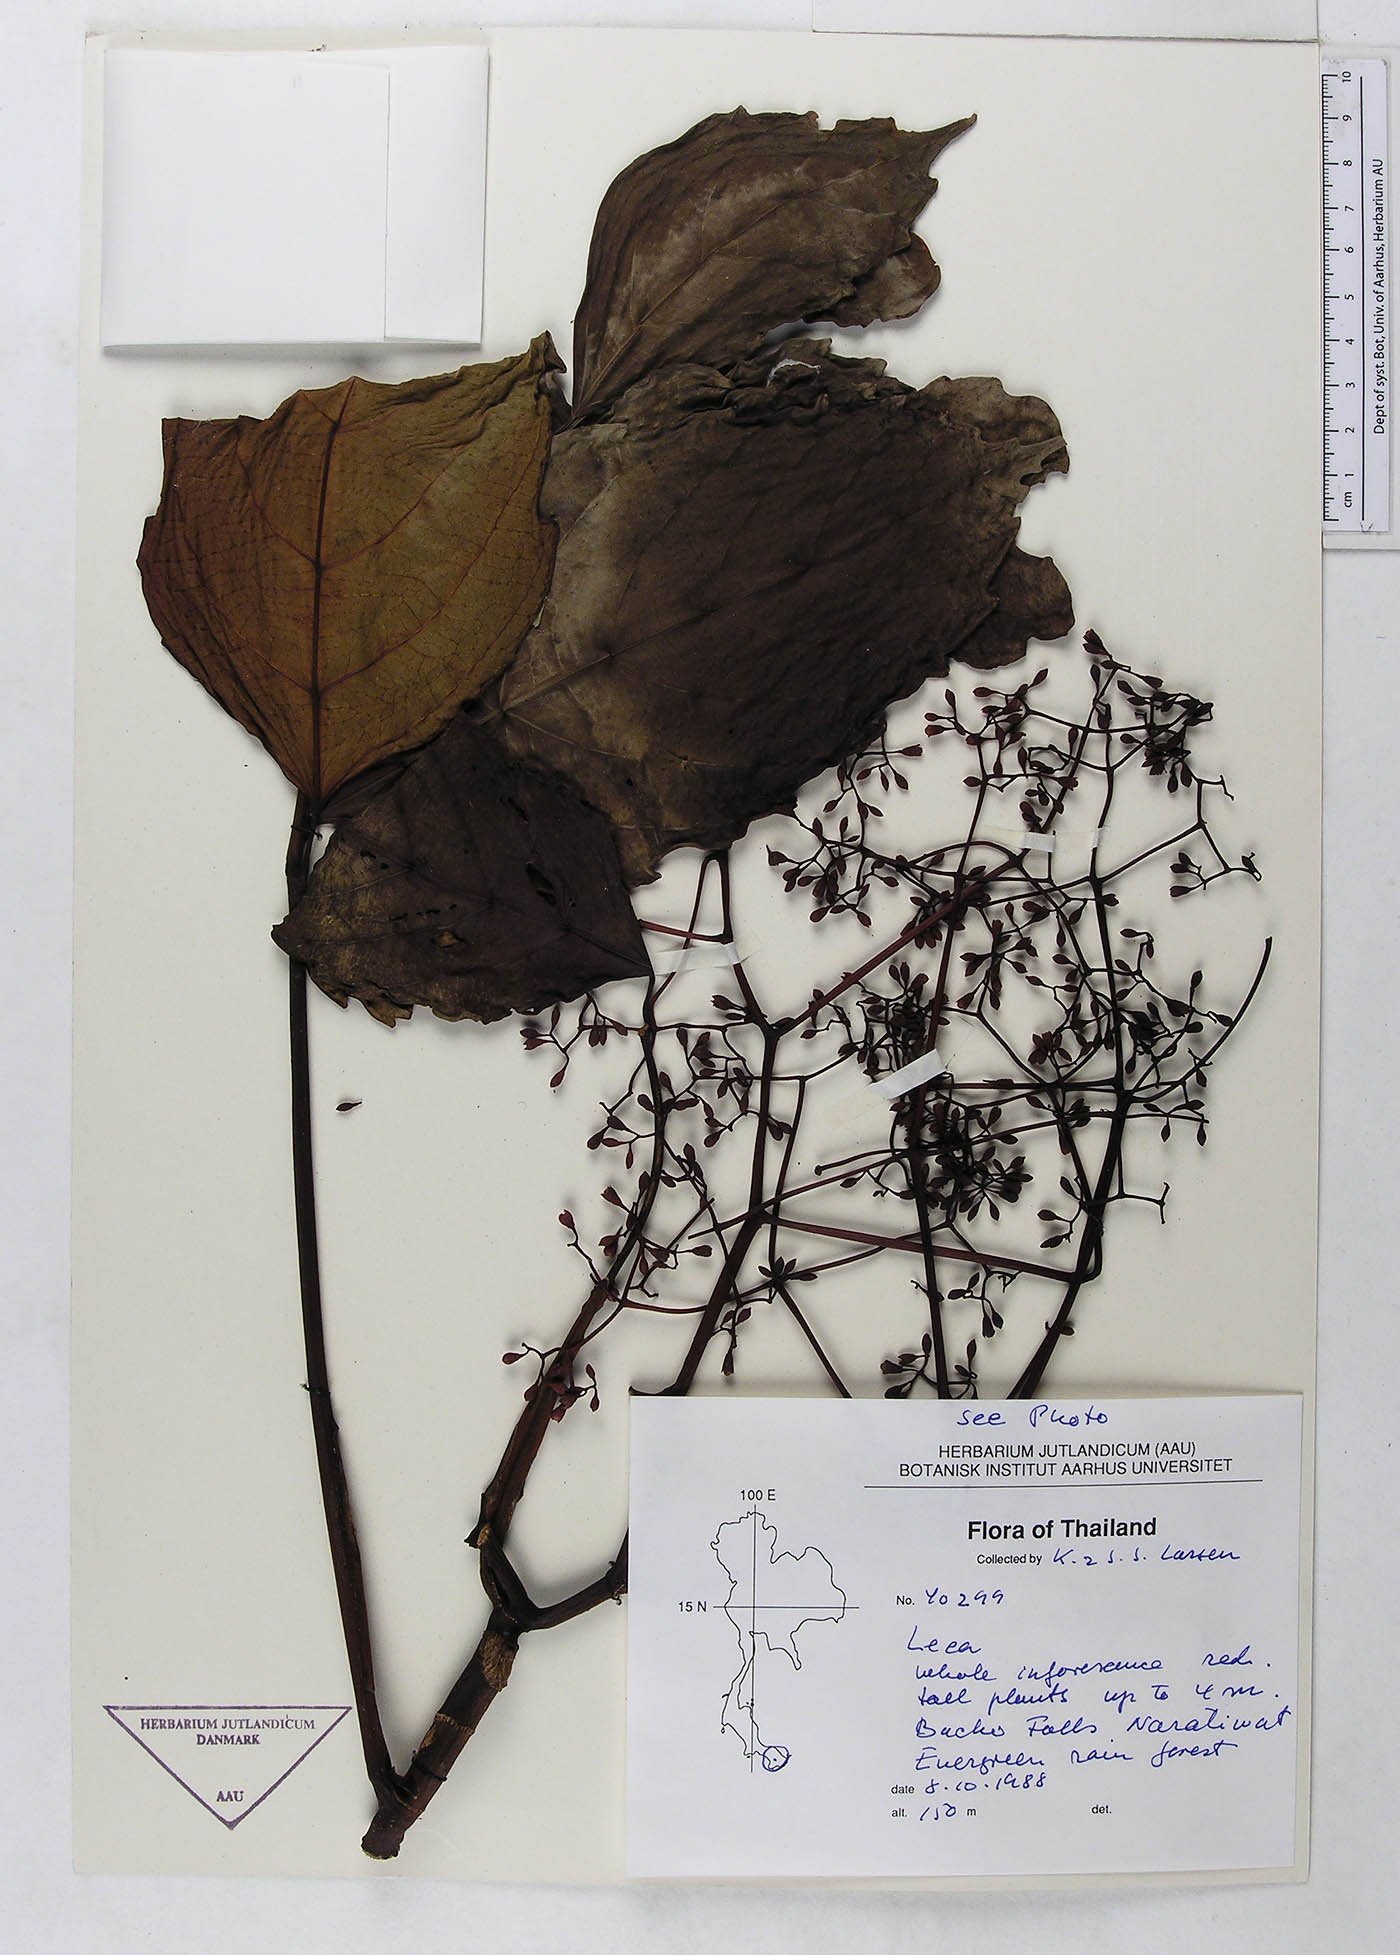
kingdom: Plantae
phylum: Tracheophyta
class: Magnoliopsida
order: Vitales
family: Vitaceae
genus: Leea
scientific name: Leea curtisii
